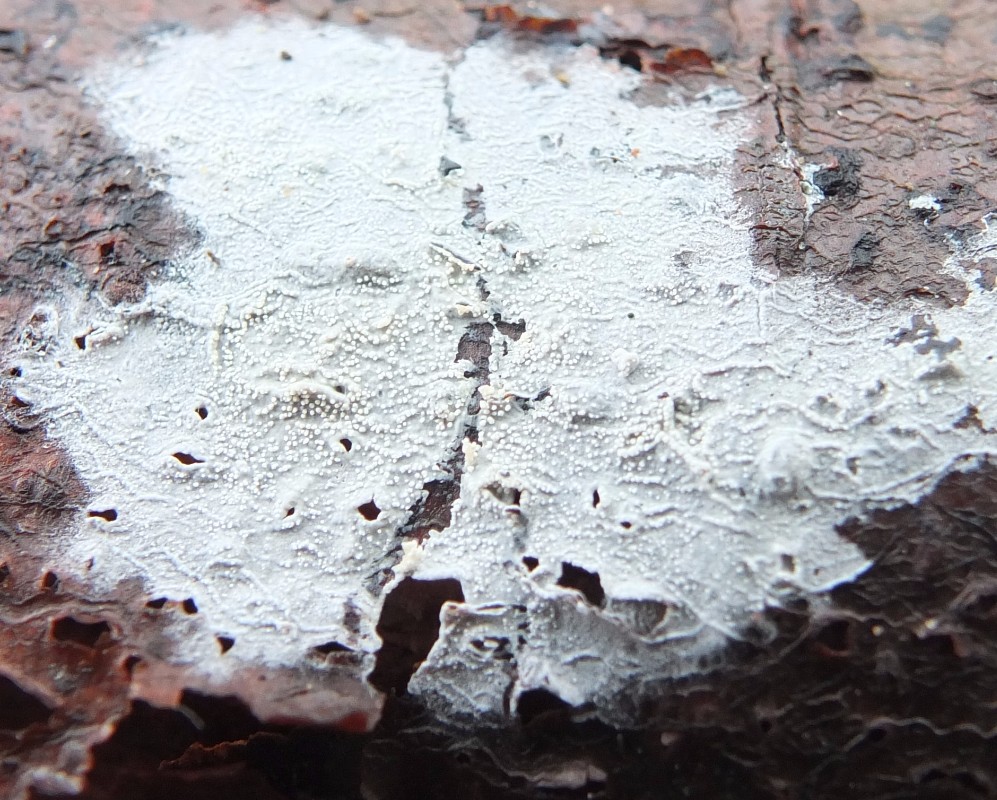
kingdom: Fungi
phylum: Basidiomycota
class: Agaricomycetes
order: Cantharellales
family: Hydnaceae
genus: Sistotrema
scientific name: Sistotrema brinkmannii
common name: bønnesporet kroneskorpe
